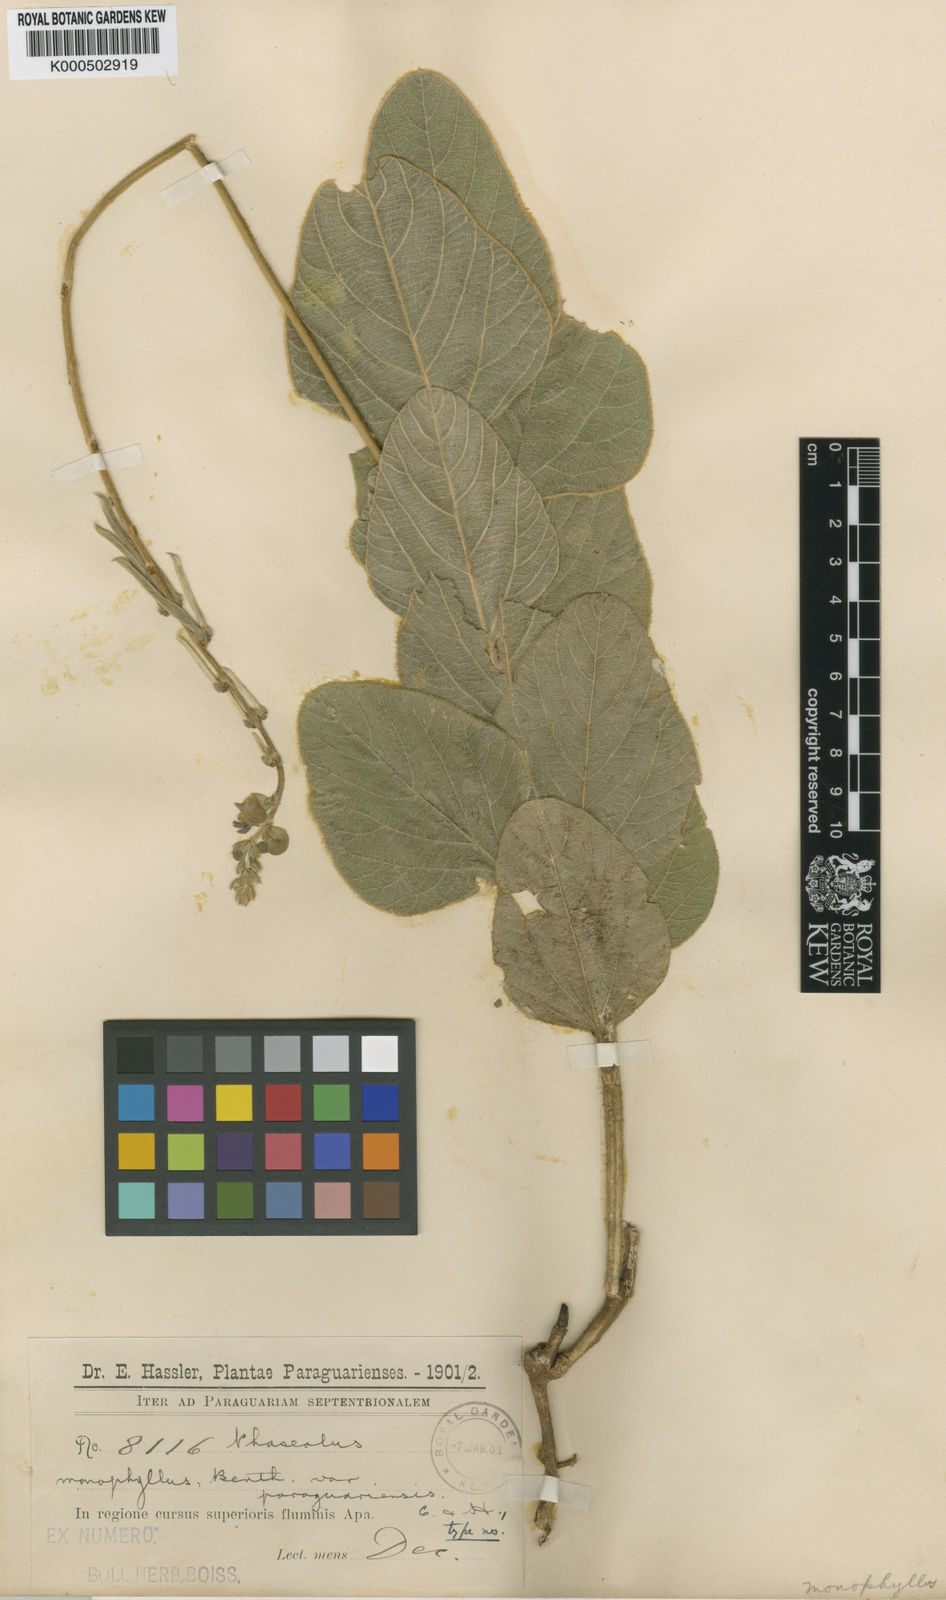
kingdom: Plantae
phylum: Tracheophyta
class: Magnoliopsida
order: Fabales
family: Fabaceae
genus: Macroptilium
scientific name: Macroptilium
